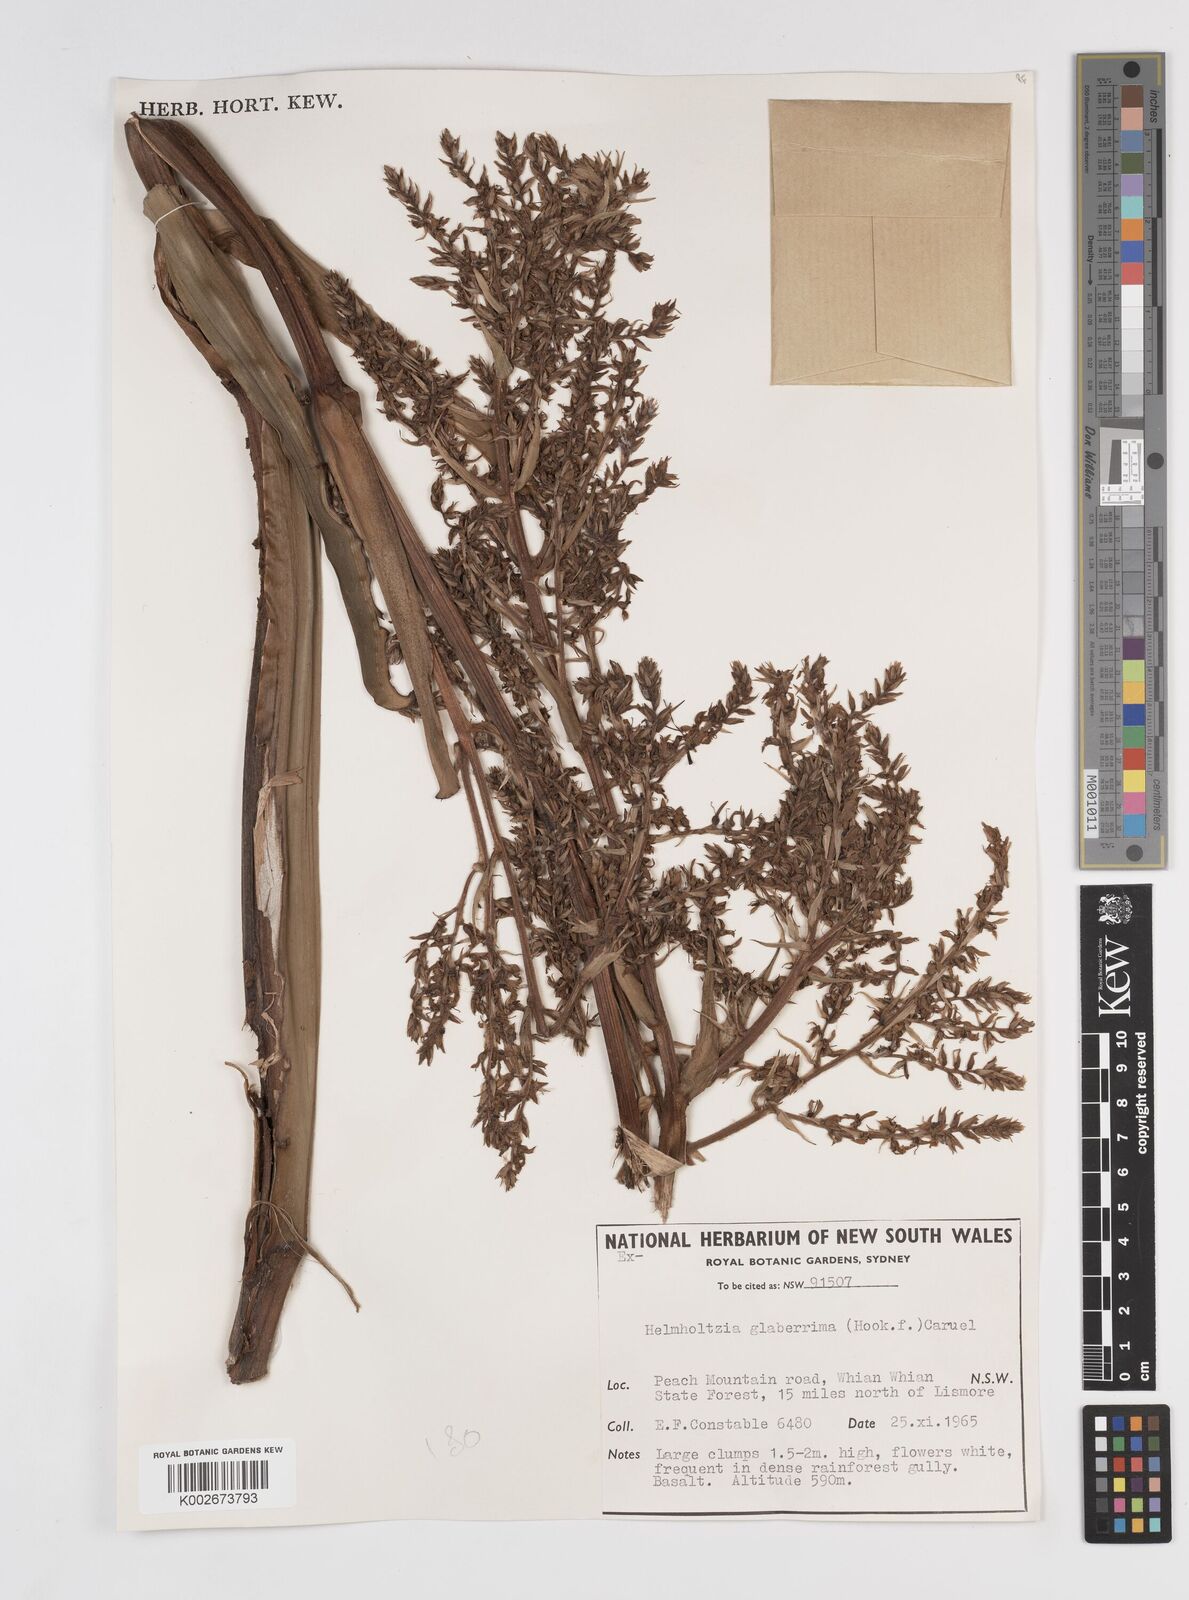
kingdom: Plantae
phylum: Tracheophyta
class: Liliopsida
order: Commelinales
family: Philydraceae
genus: Helmholtzia
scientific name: Helmholtzia glaberrima
